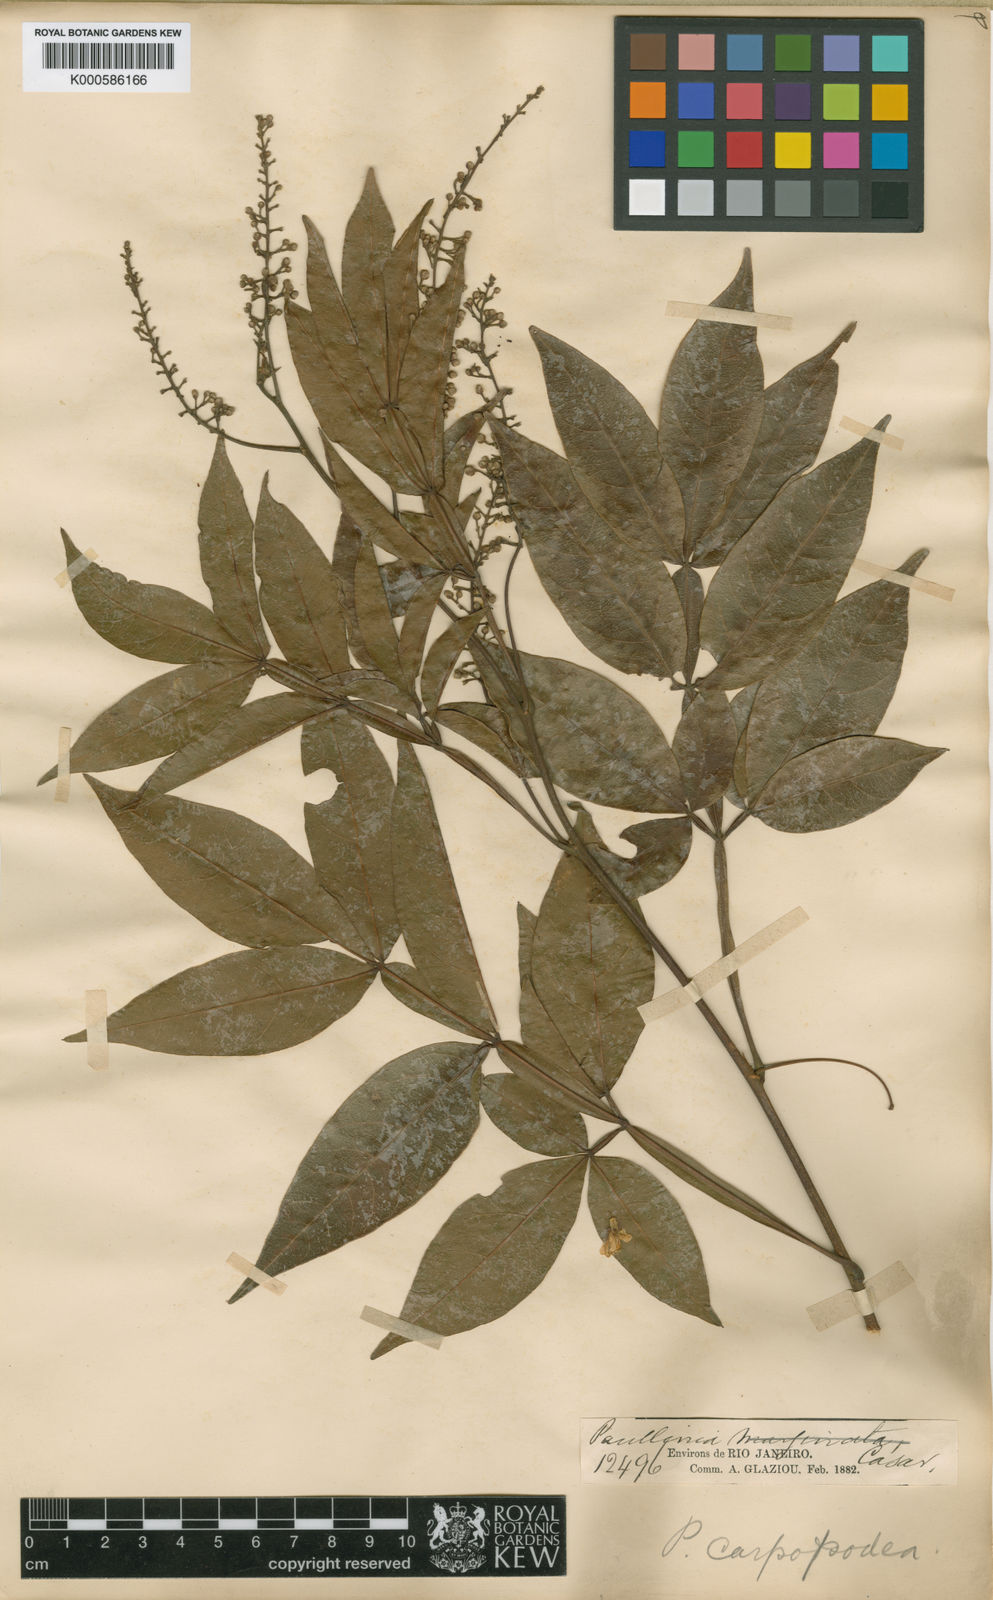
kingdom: Plantae
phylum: Tracheophyta
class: Magnoliopsida
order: Sapindales
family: Sapindaceae
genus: Paullinia
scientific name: Paullinia carpopodea
